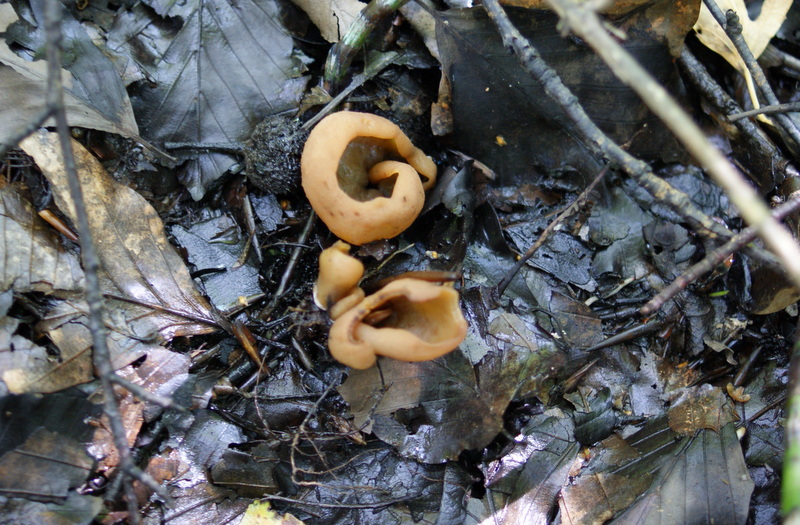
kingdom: Fungi
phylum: Ascomycota
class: Pezizomycetes
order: Pezizales
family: Pezizaceae
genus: Paragalactinia
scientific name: Paragalactinia succosa
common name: gulmælket bægersvamp
